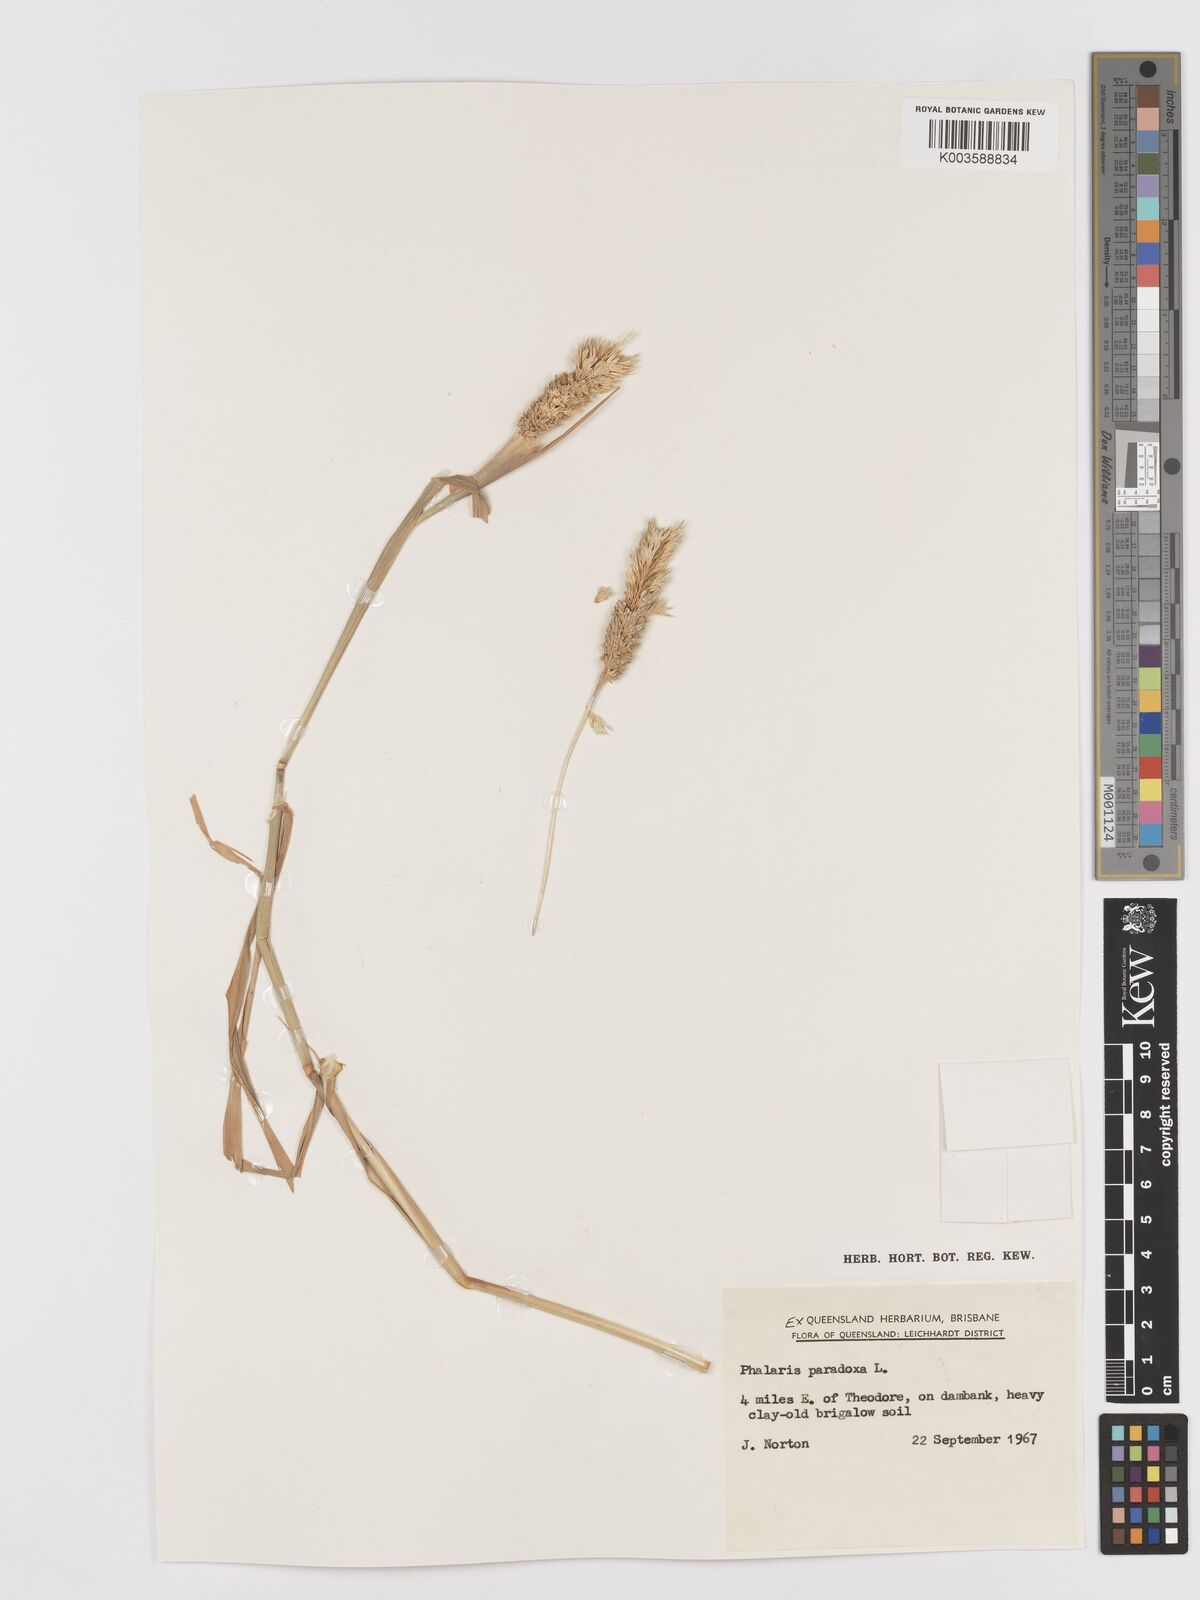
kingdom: Plantae
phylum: Tracheophyta
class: Liliopsida
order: Poales
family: Poaceae
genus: Phalaris
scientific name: Phalaris paradoxa
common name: Awned canary-grass
